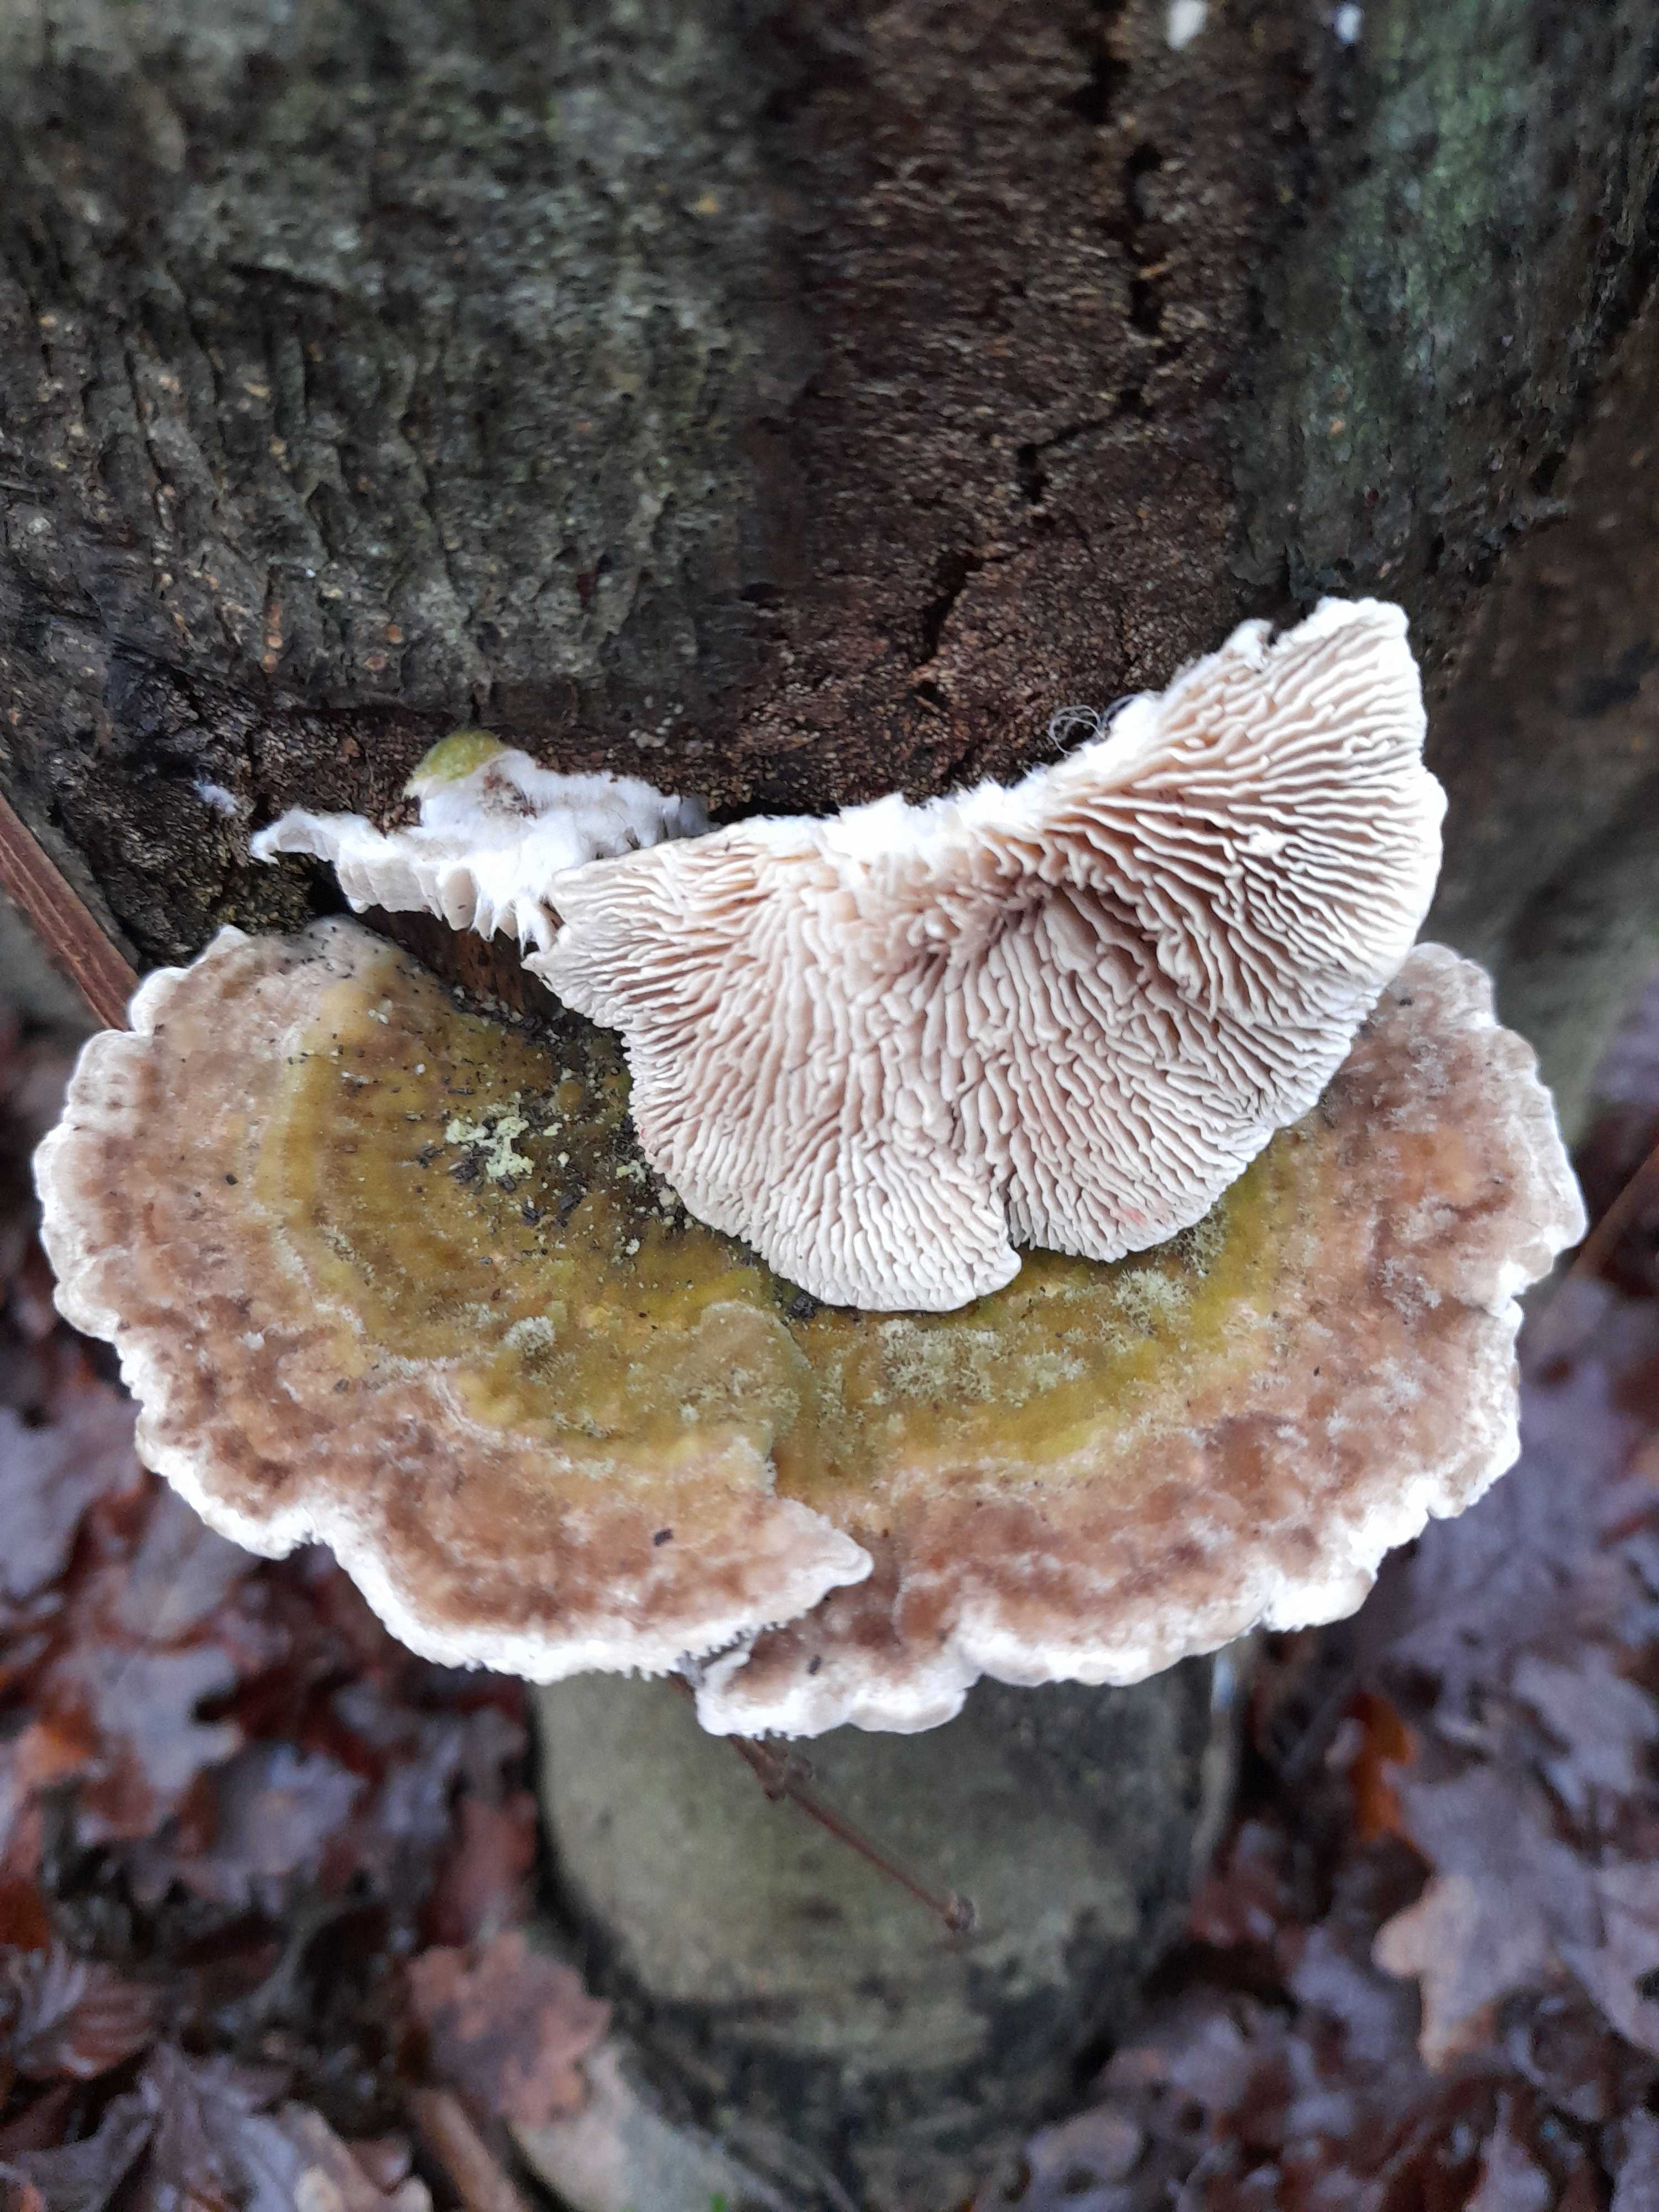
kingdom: Fungi
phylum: Basidiomycota
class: Agaricomycetes
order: Polyporales
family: Polyporaceae
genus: Lenzites
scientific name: Lenzites betulinus
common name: birke-læderporesvamp
